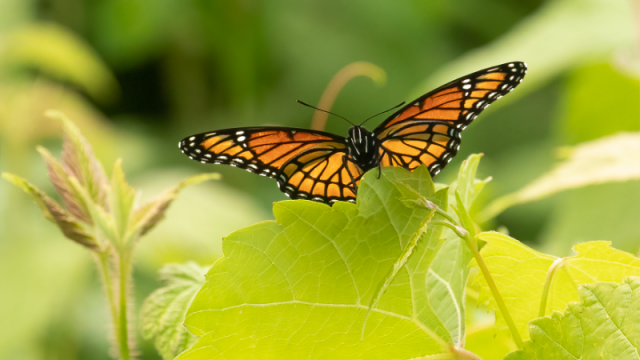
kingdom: Animalia
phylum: Arthropoda
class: Insecta
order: Lepidoptera
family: Nymphalidae
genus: Limenitis
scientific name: Limenitis archippus
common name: Viceroy
